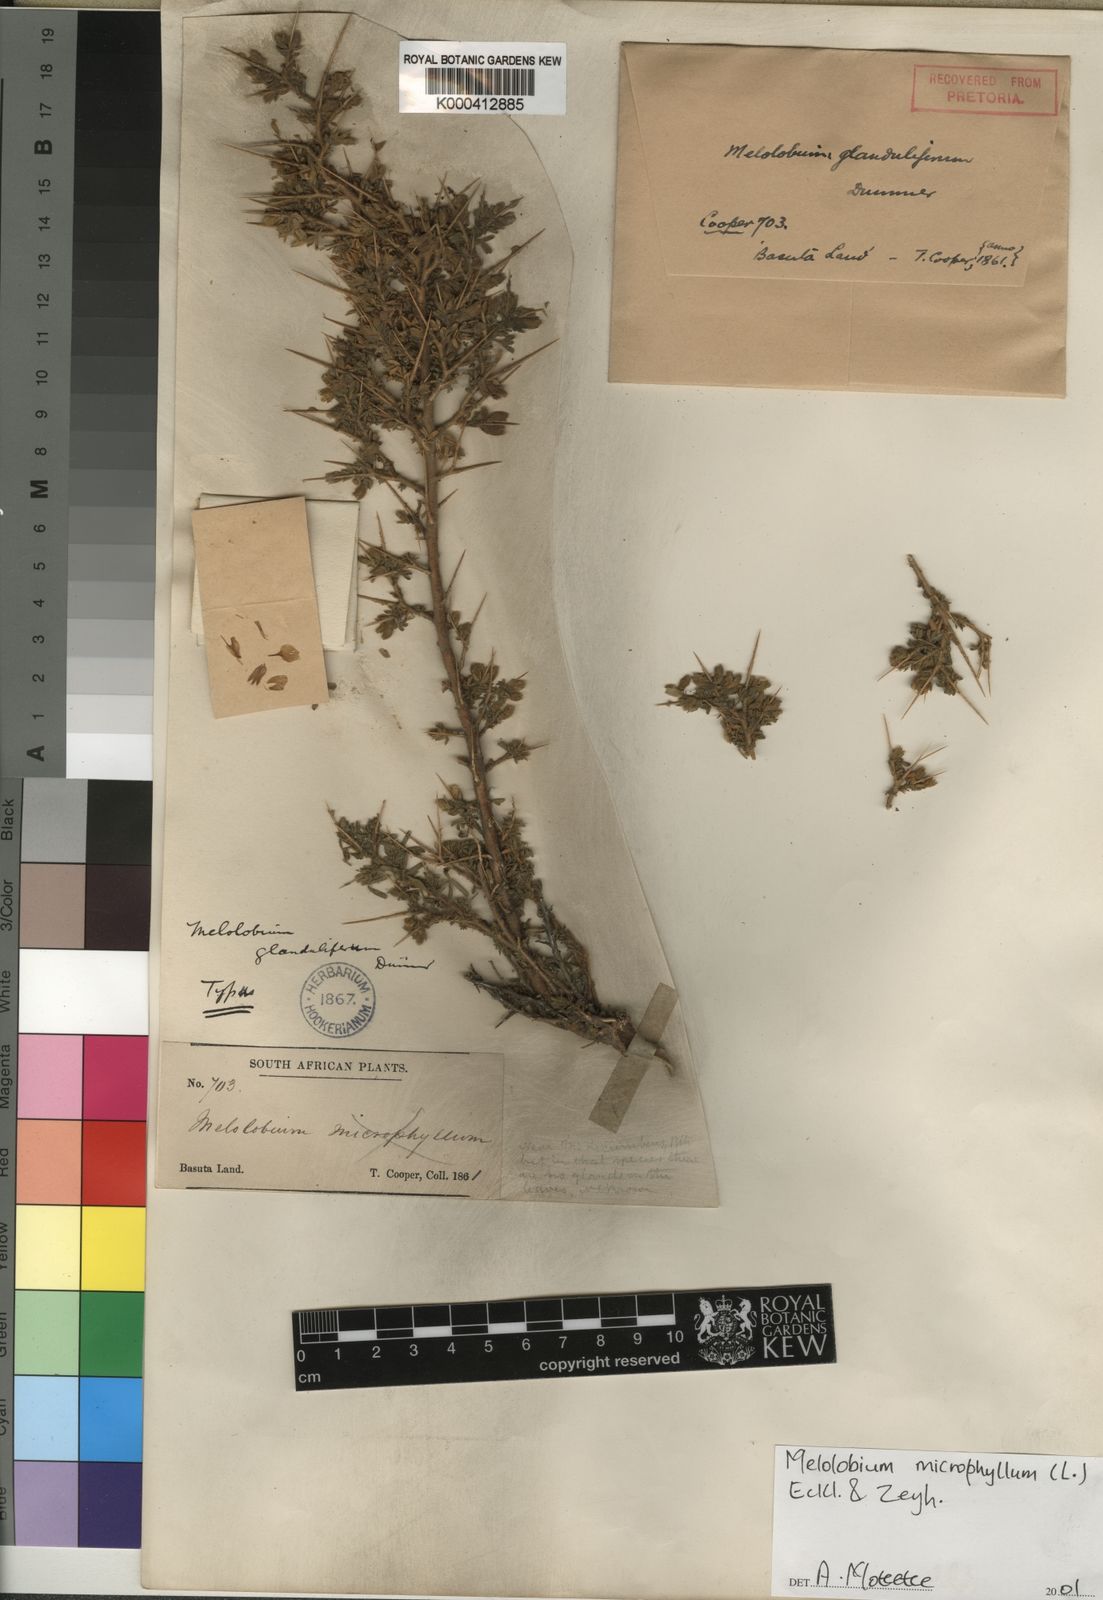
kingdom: Plantae
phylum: Tracheophyta
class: Magnoliopsida
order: Fabales
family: Fabaceae
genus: Melolobium
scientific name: Melolobium microphyllum
